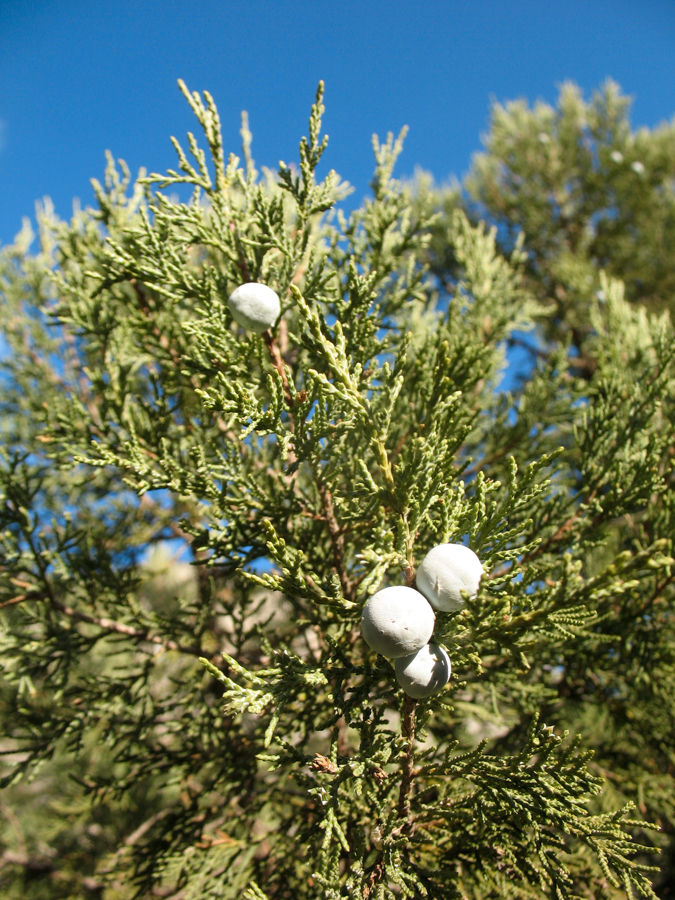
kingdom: Plantae
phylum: Tracheophyta
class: Pinopsida
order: Pinales
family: Cupressaceae
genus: Juniperus
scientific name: Juniperus excelsa
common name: Crimean juniper
